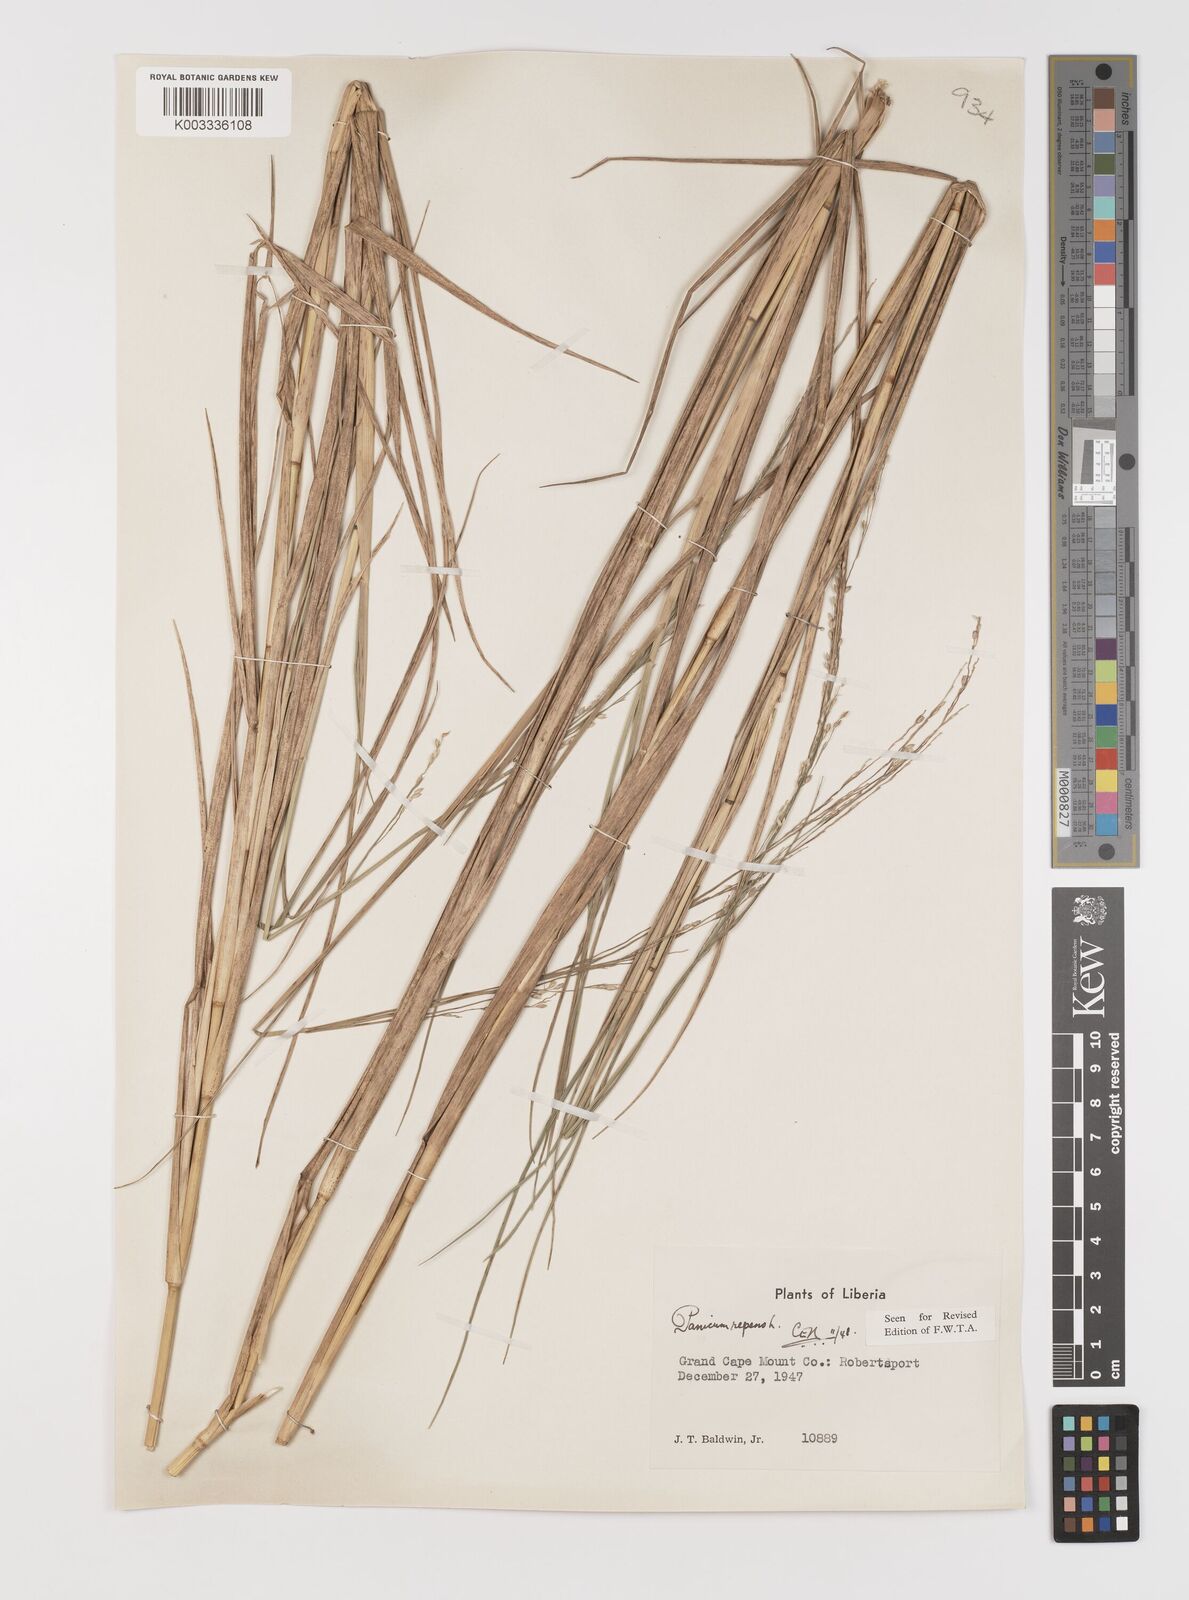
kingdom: Plantae
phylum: Tracheophyta
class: Liliopsida
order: Poales
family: Poaceae
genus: Panicum
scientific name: Panicum repens
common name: Torpedo grass
